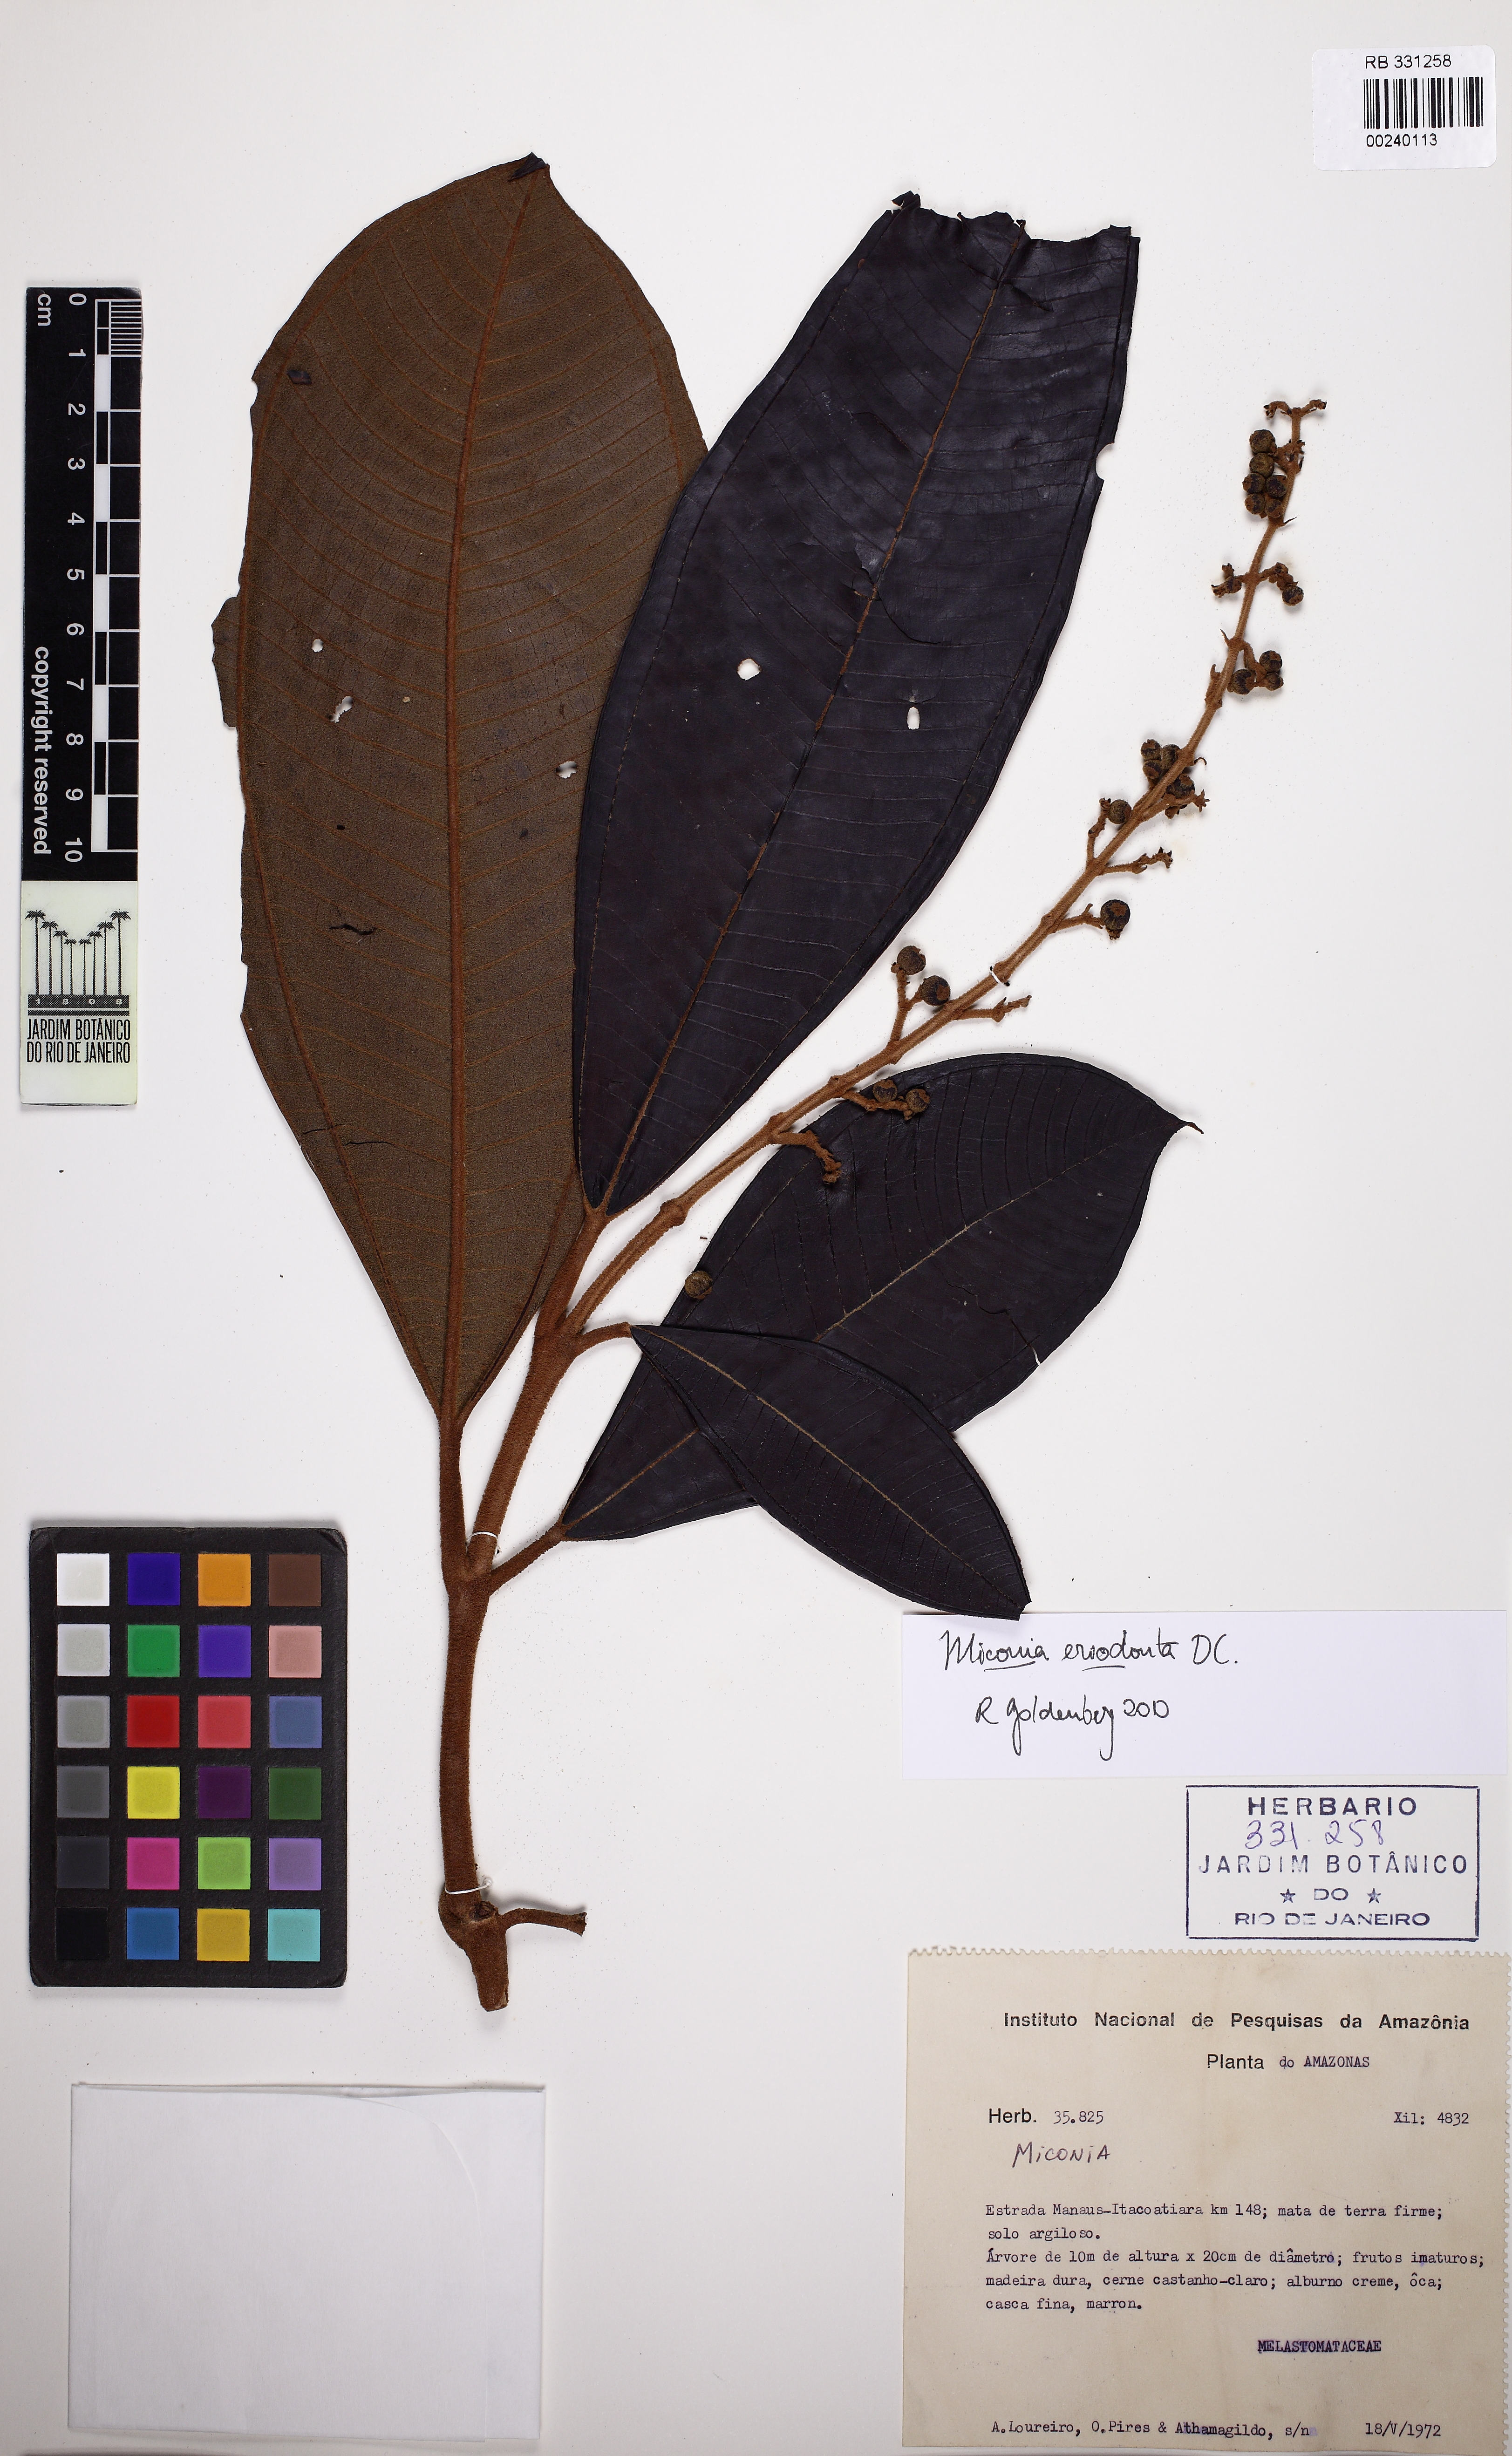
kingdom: Plantae
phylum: Tracheophyta
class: Magnoliopsida
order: Myrtales
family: Melastomataceae
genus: Miconia
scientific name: Miconia eriodonta
